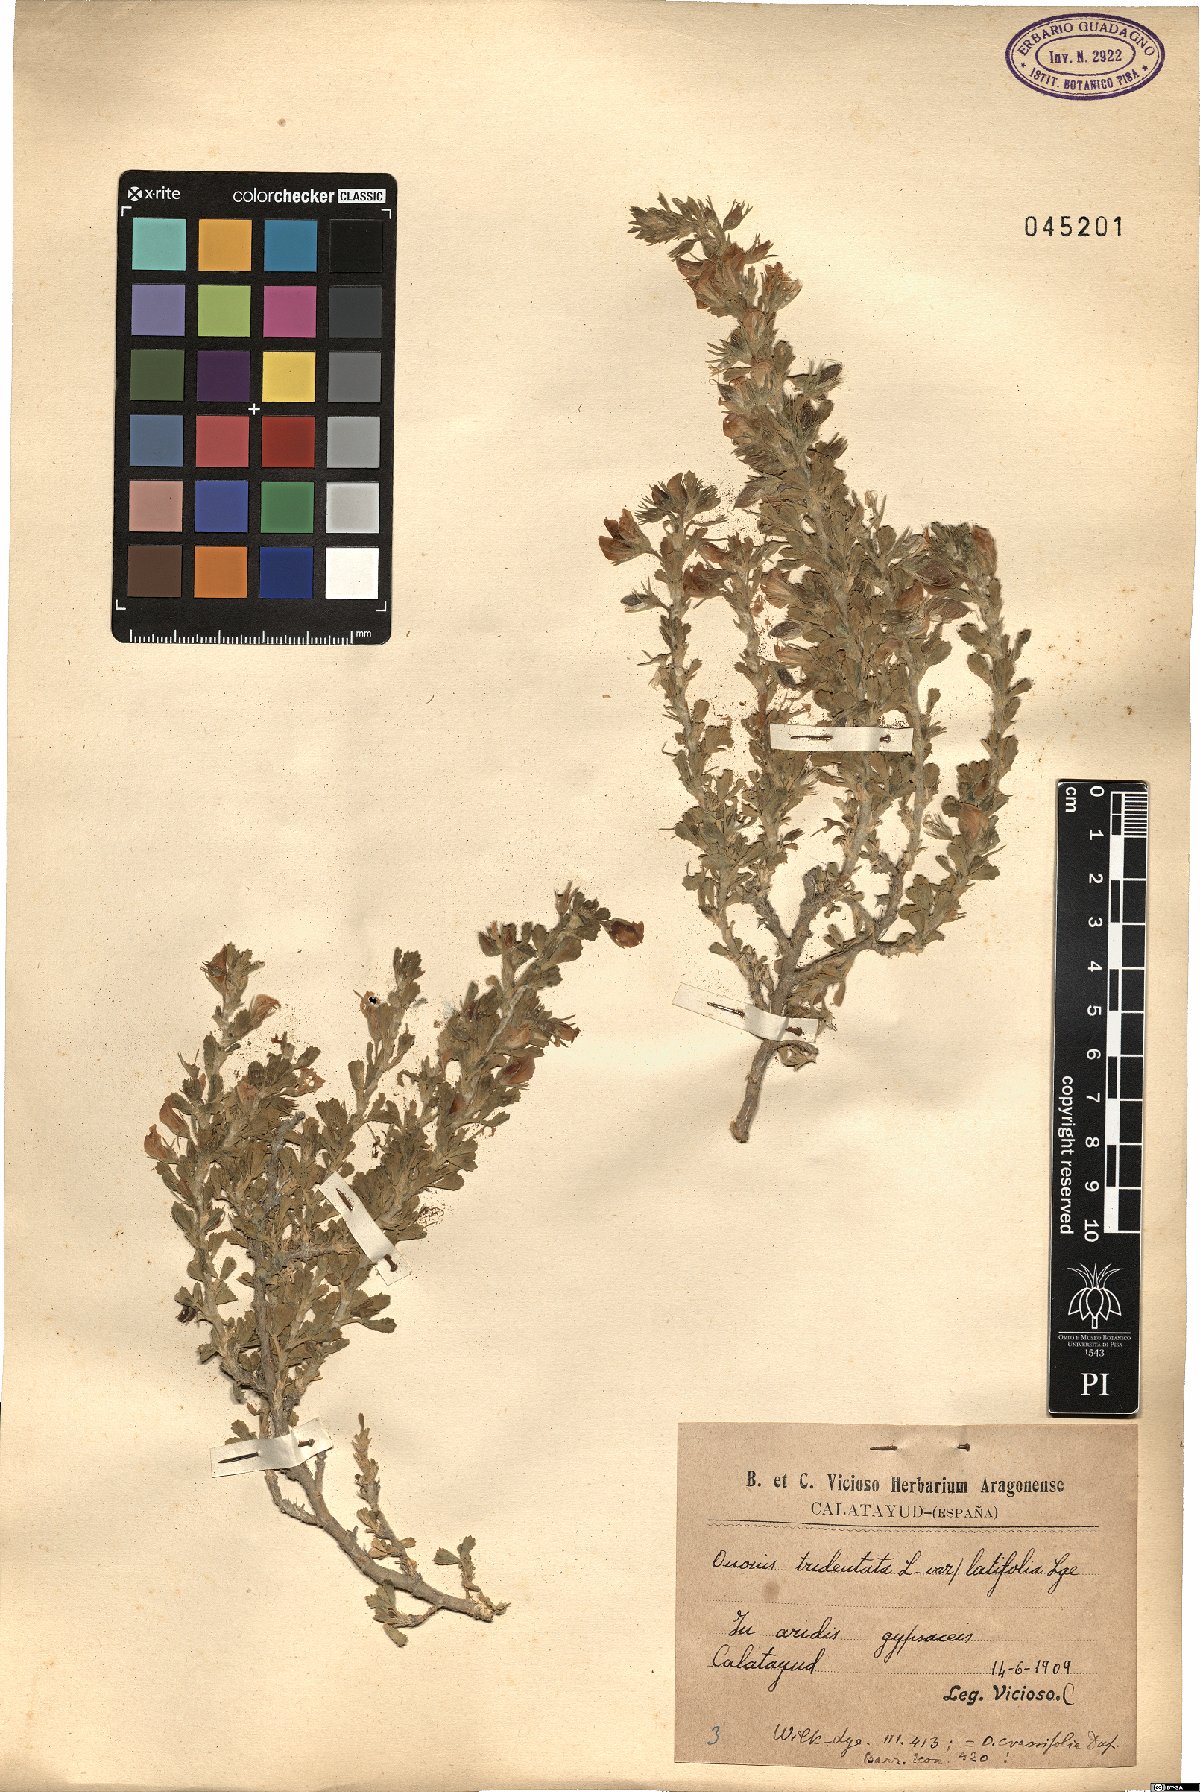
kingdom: Plantae
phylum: Tracheophyta
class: Magnoliopsida
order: Fabales
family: Fabaceae
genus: Ononis
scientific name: Ononis tridentata
